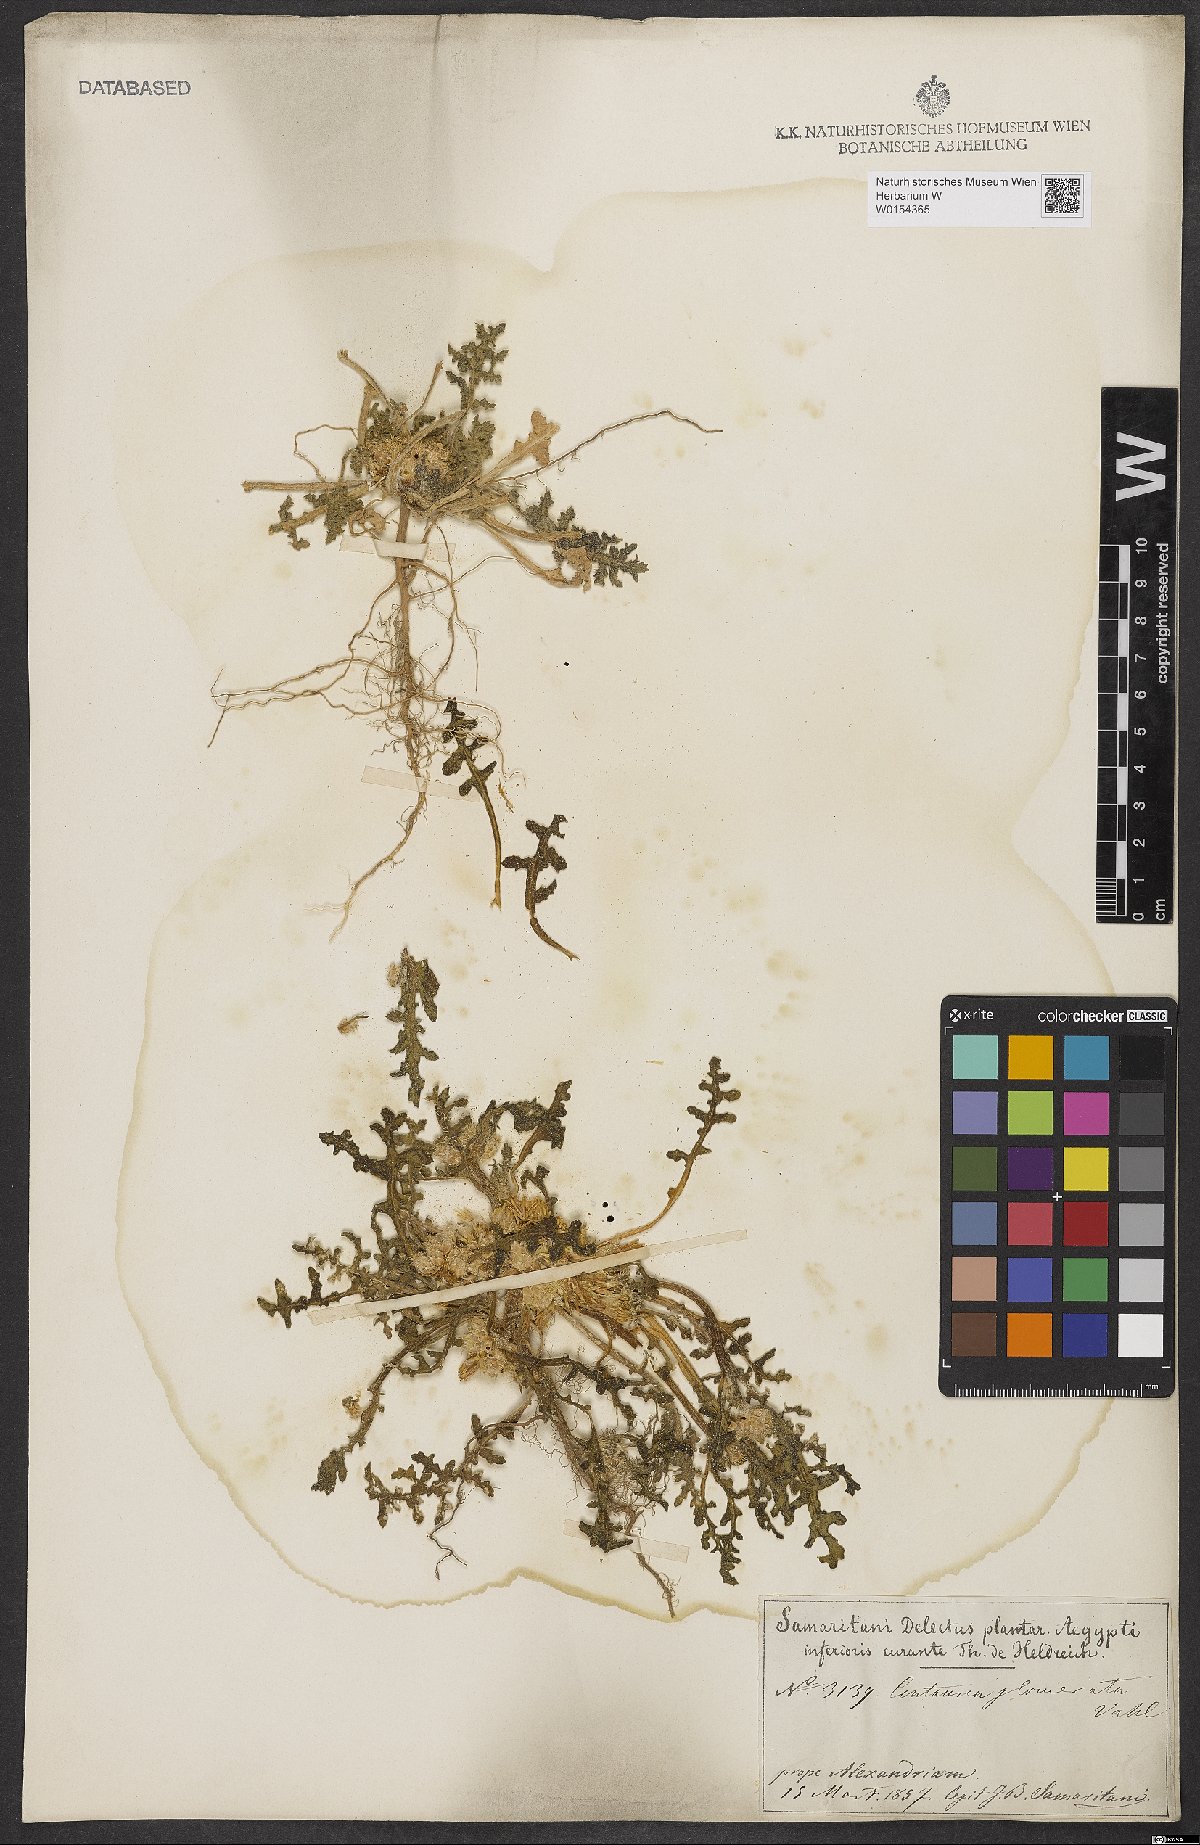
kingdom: Plantae
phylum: Tracheophyta
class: Magnoliopsida
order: Asterales
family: Asteraceae
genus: Centaurea
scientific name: Centaurea glomerata
